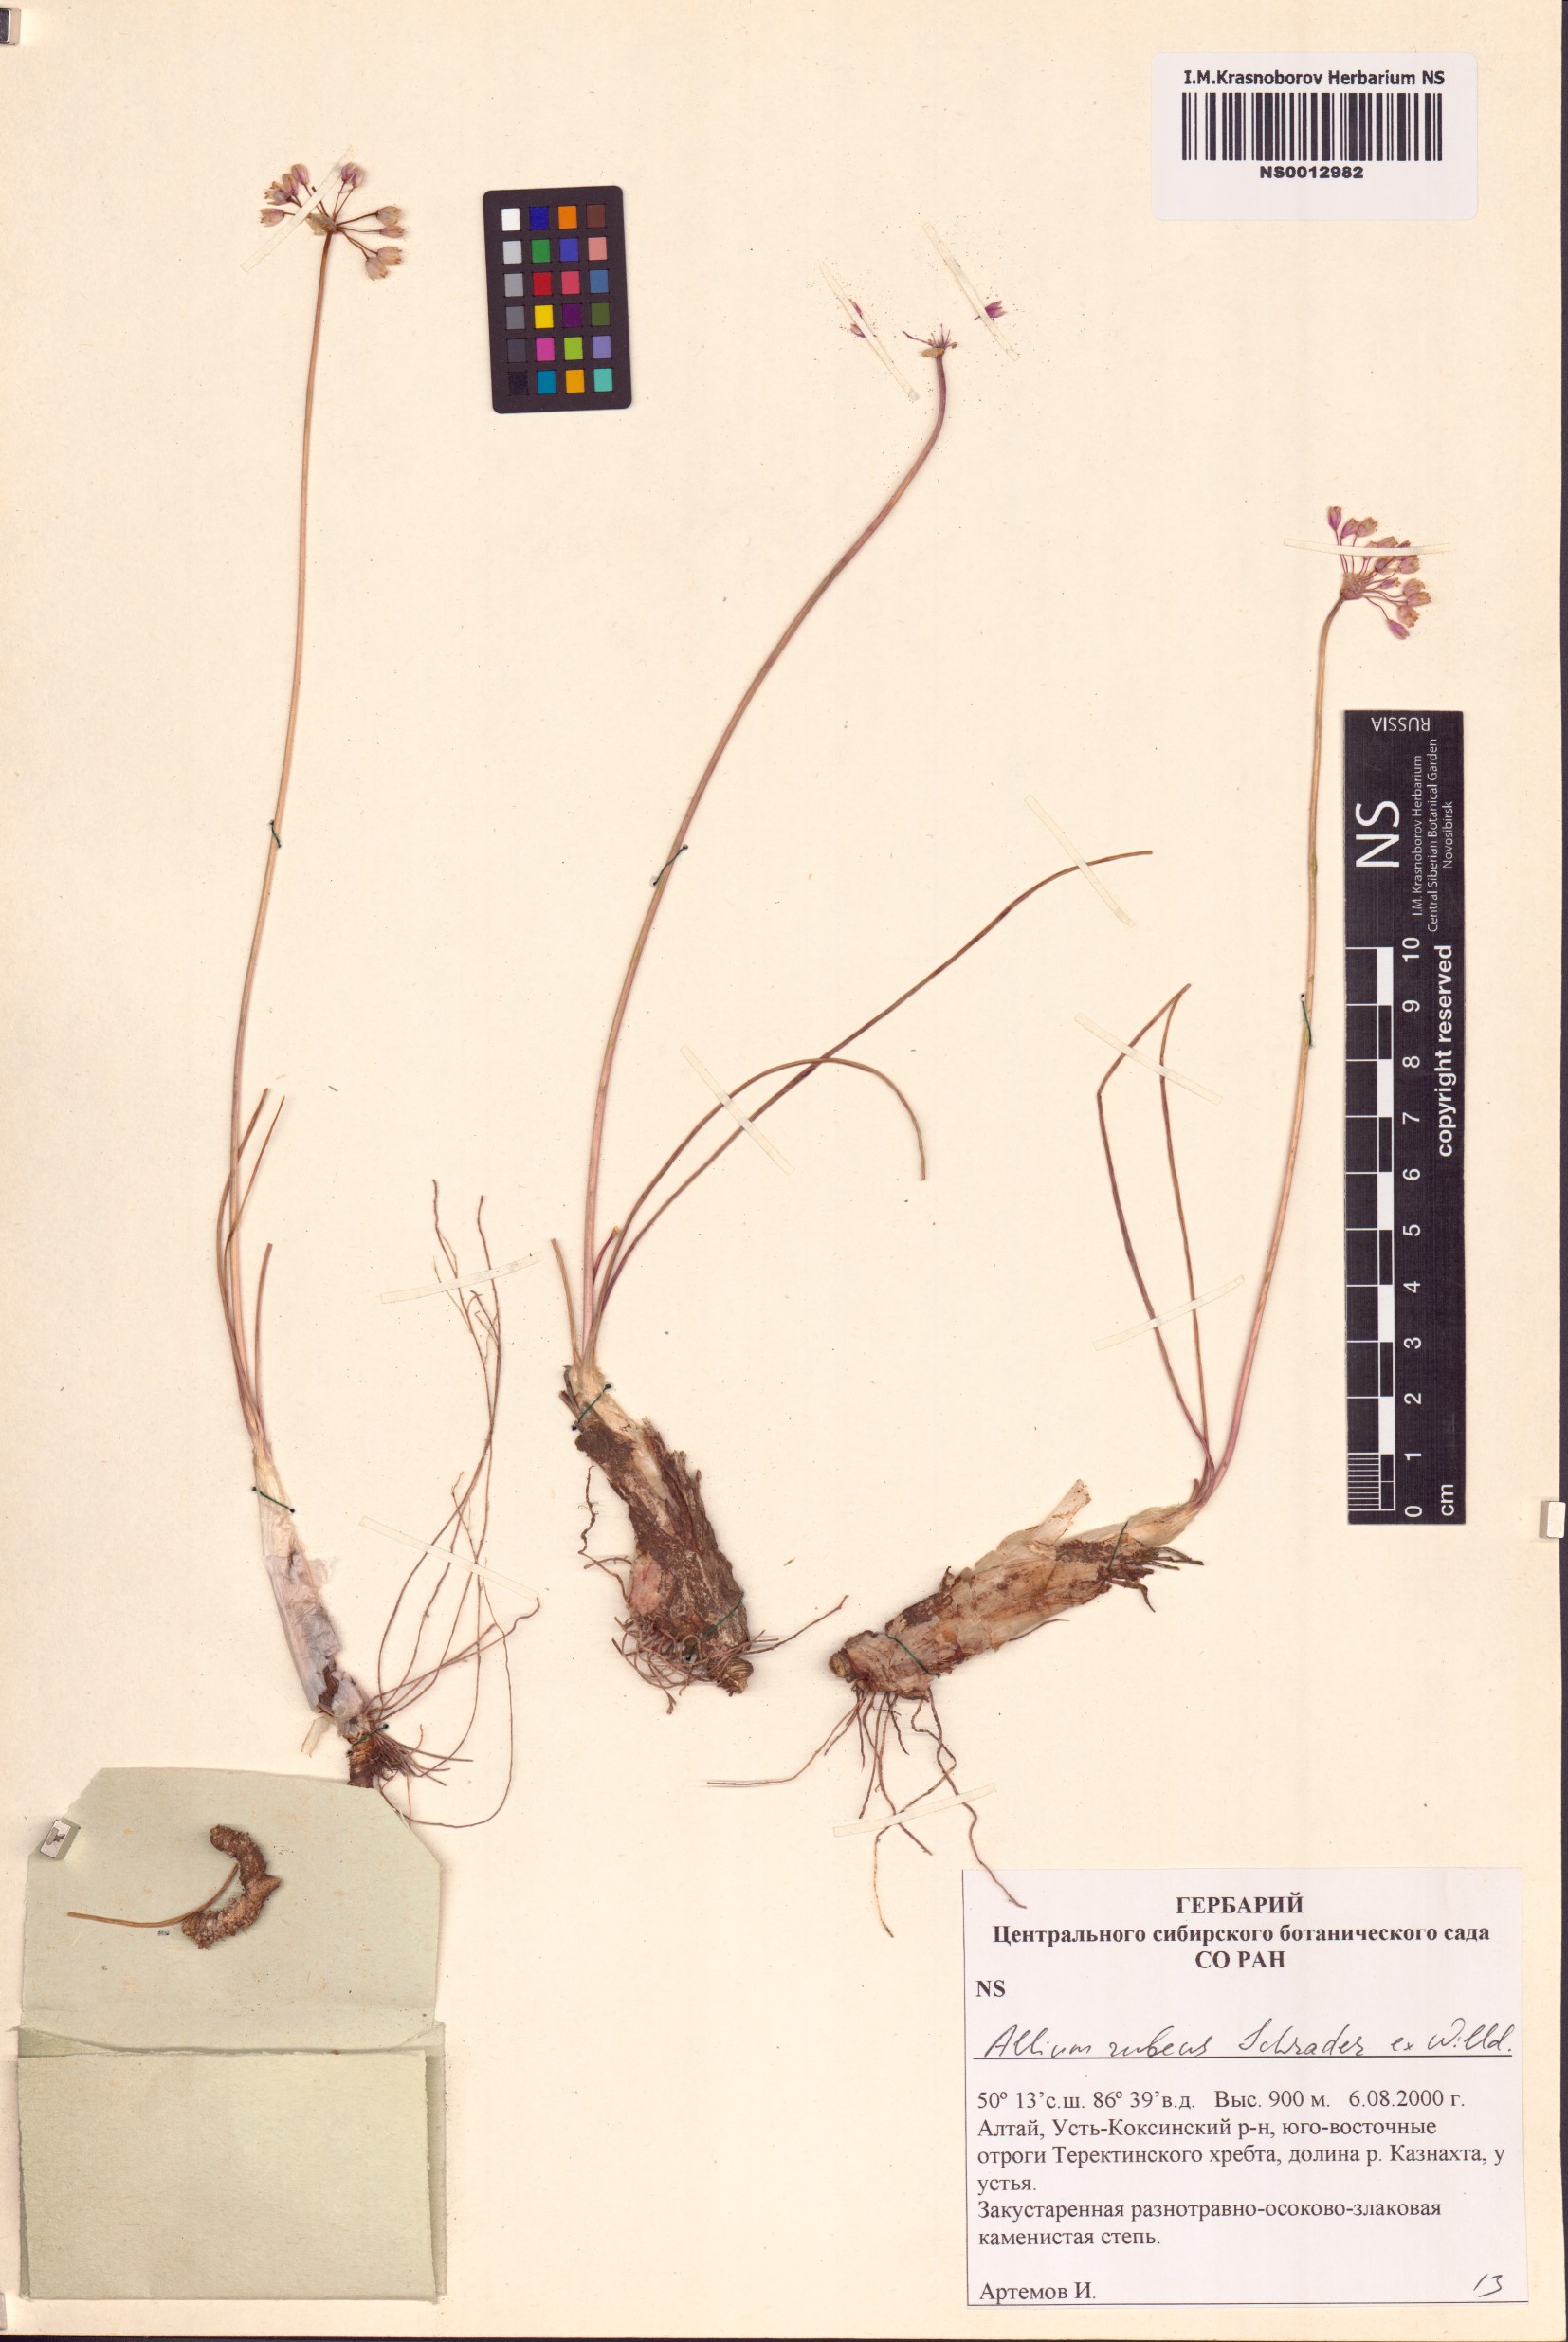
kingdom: Plantae
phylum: Tracheophyta
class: Liliopsida
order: Asparagales
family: Amaryllidaceae
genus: Allium
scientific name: Allium rubens
